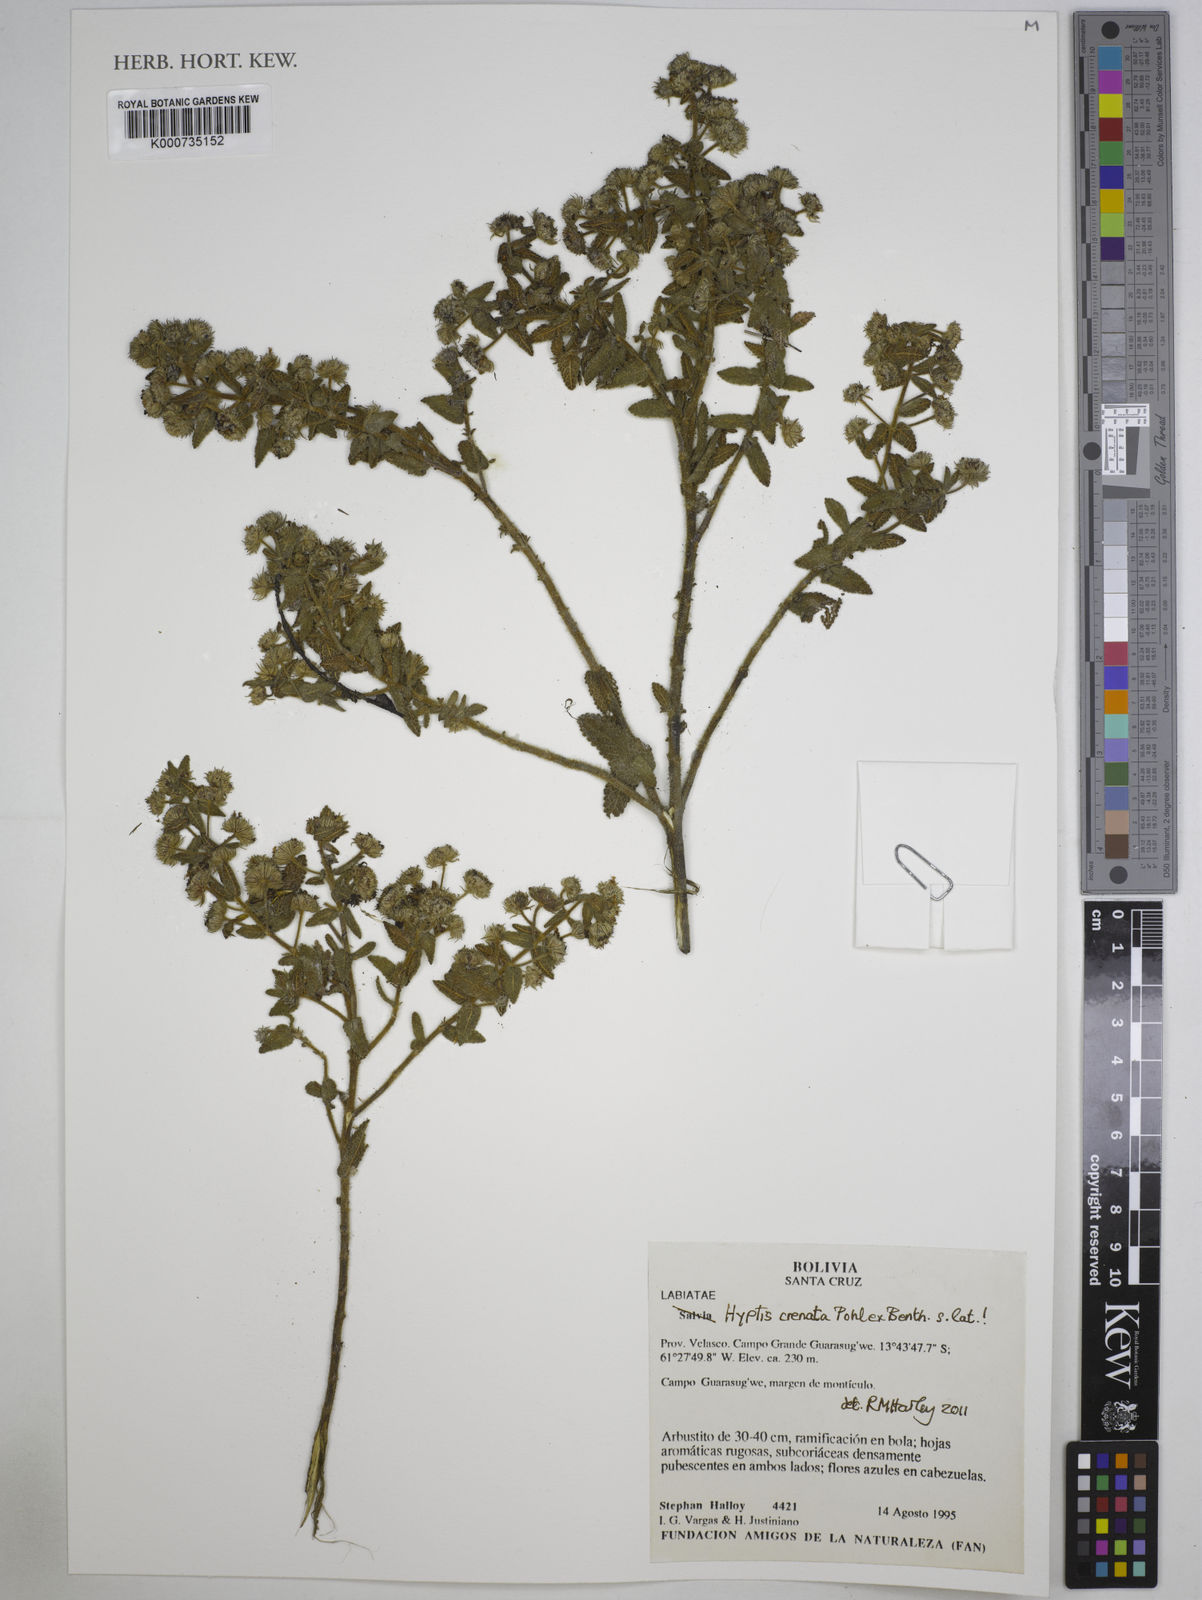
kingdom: Plantae
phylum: Tracheophyta
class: Magnoliopsida
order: Lamiales
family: Lamiaceae
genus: Hyptis
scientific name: Hyptis crenata
